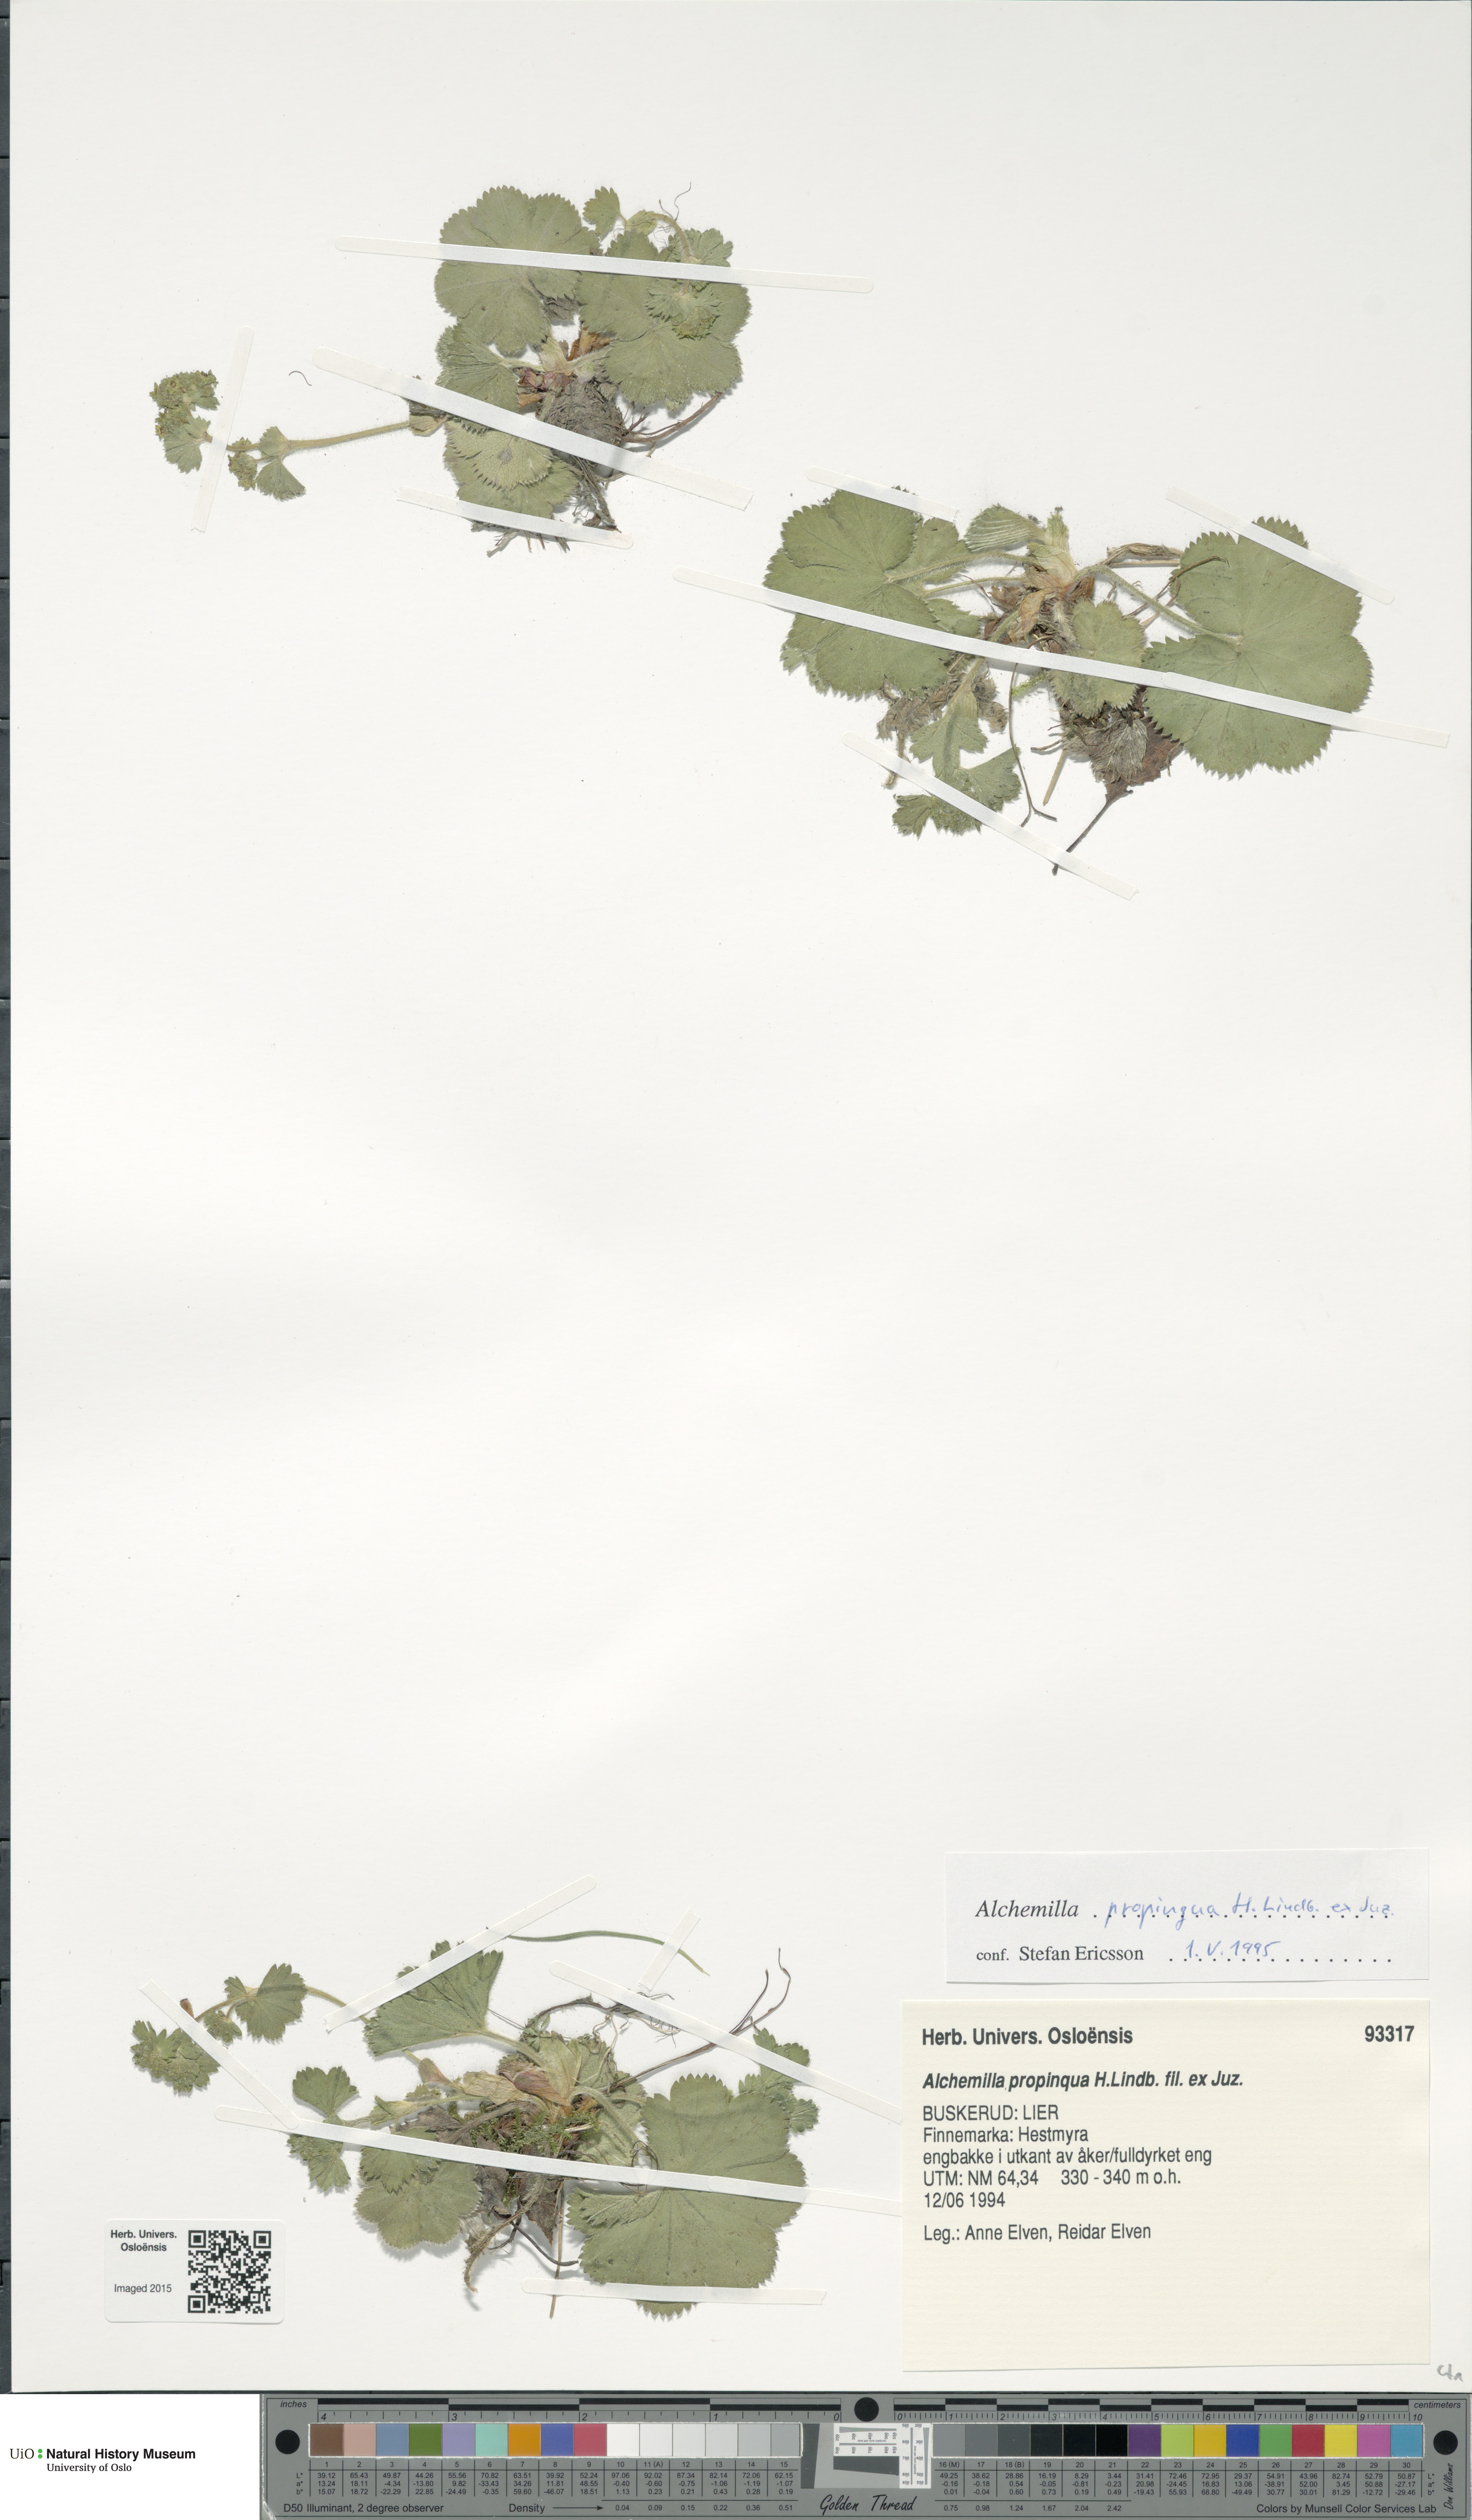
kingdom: Plantae
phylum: Tracheophyta
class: Magnoliopsida
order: Rosales
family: Rosaceae
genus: Alchemilla
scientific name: Alchemilla propinqua
